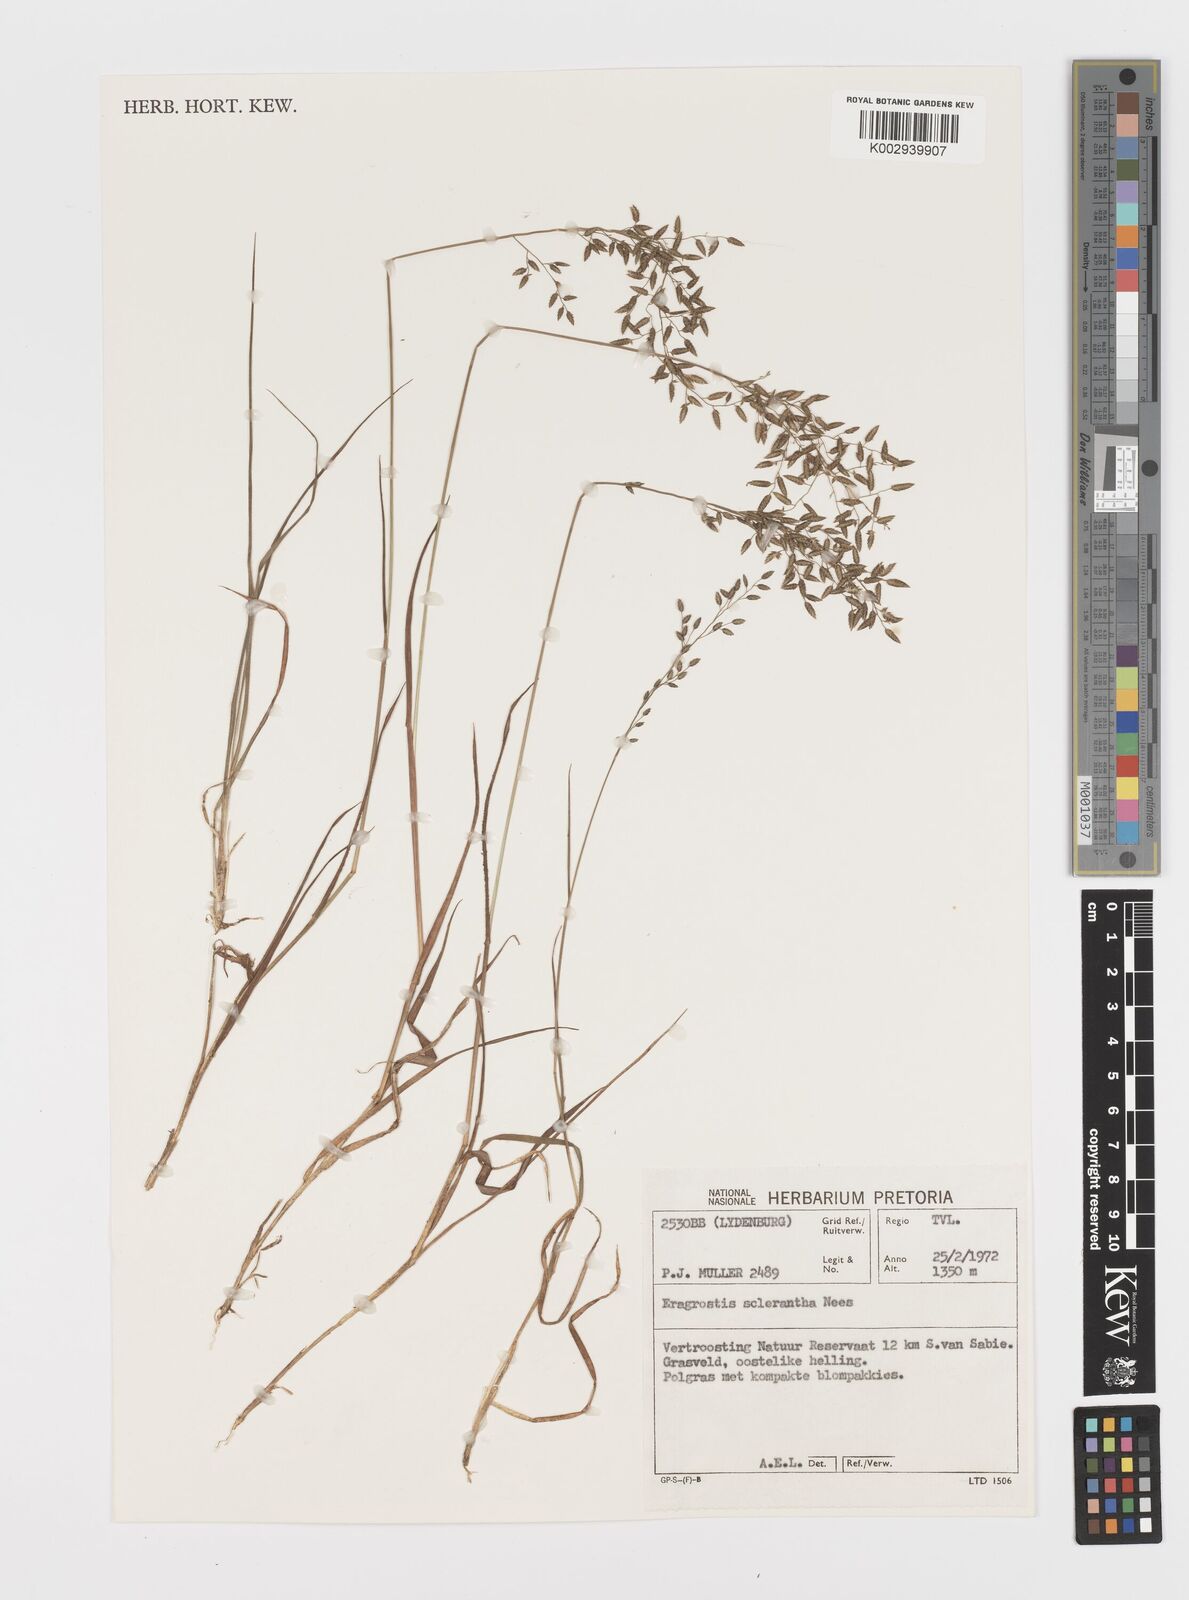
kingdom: Plantae
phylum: Tracheophyta
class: Liliopsida
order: Poales
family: Poaceae
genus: Eragrostis
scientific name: Eragrostis sclerantha
